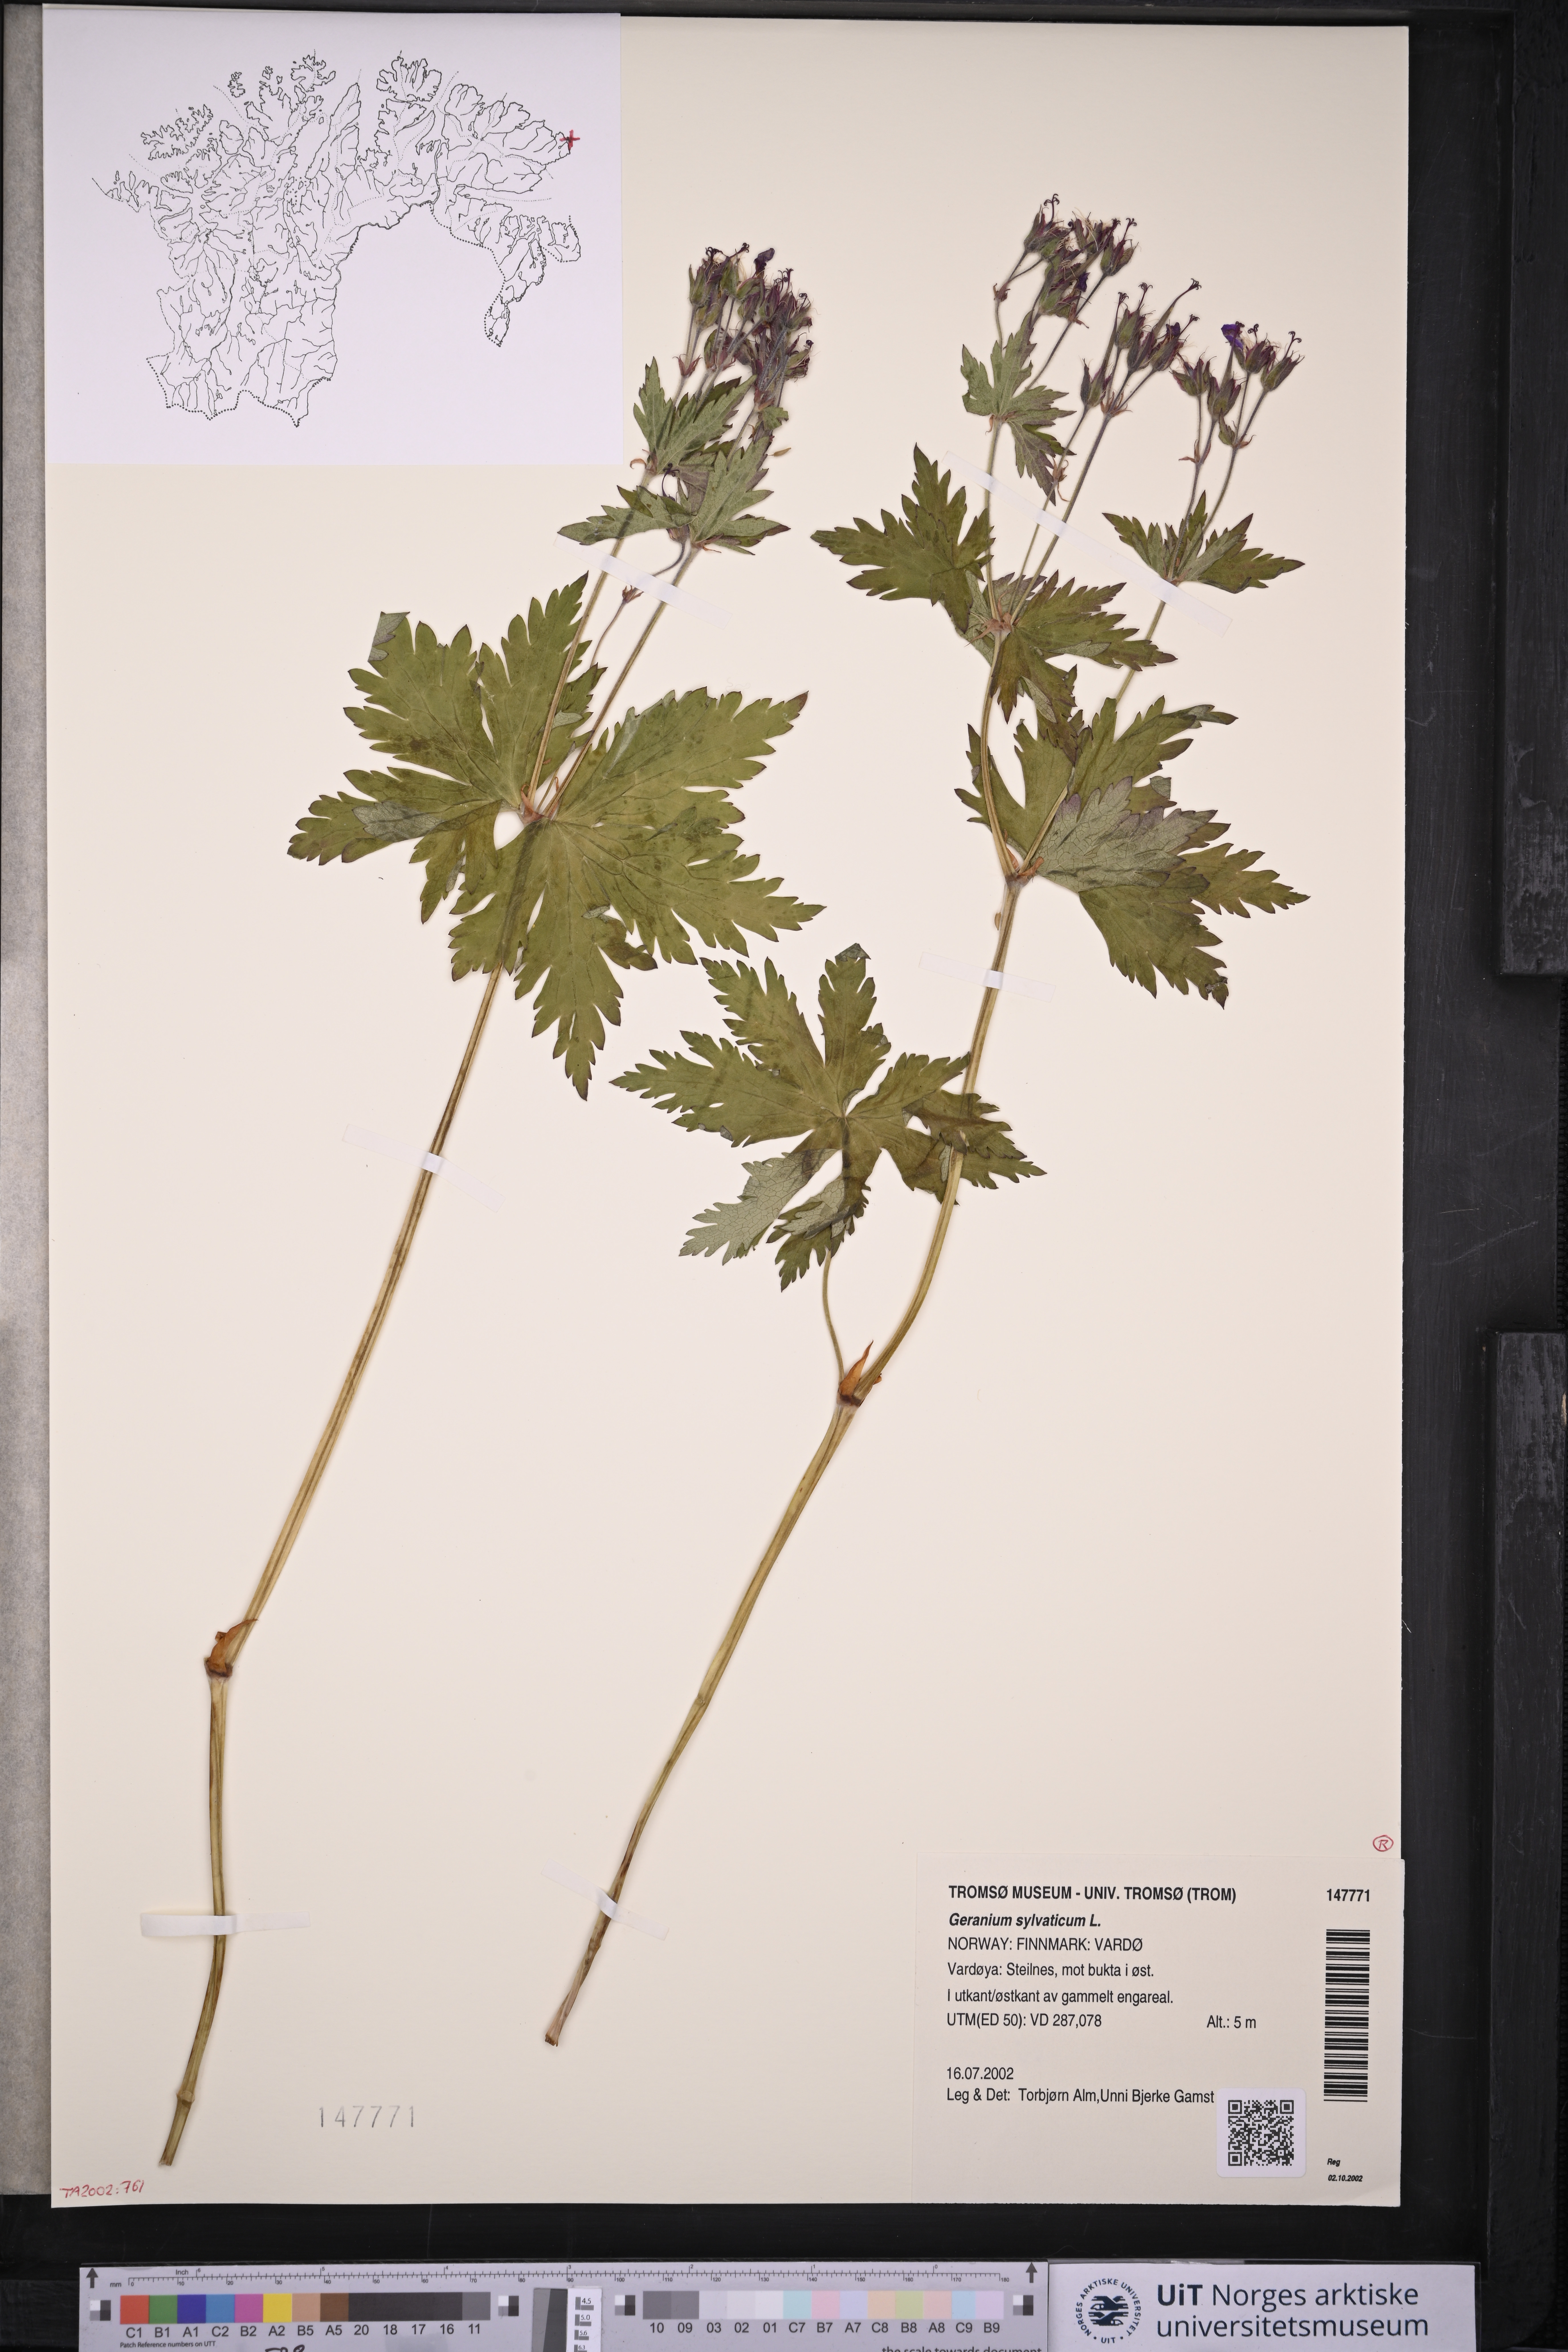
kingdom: Plantae
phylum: Tracheophyta
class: Magnoliopsida
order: Geraniales
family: Geraniaceae
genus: Geranium
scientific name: Geranium sylvaticum
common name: Wood crane's-bill
